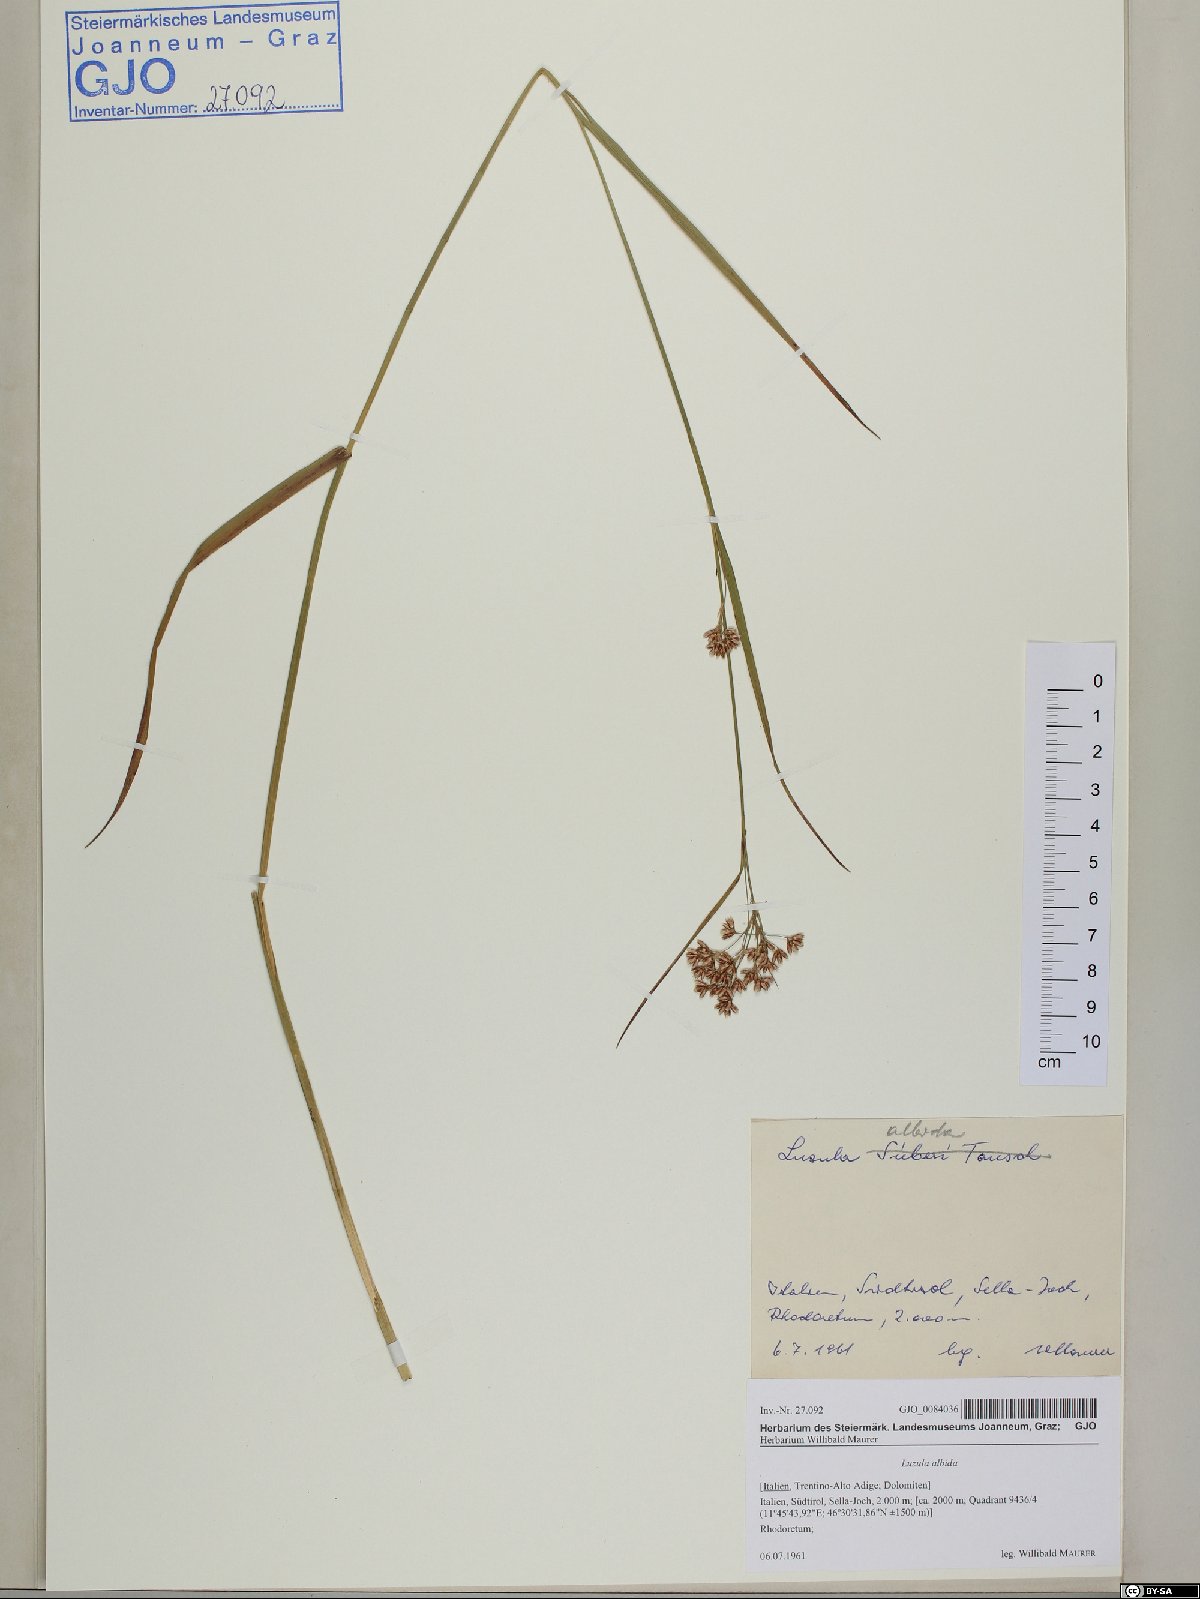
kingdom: Plantae
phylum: Tracheophyta
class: Liliopsida
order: Poales
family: Juncaceae
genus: Luzula
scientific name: Luzula luzuloides
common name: White wood-rush
